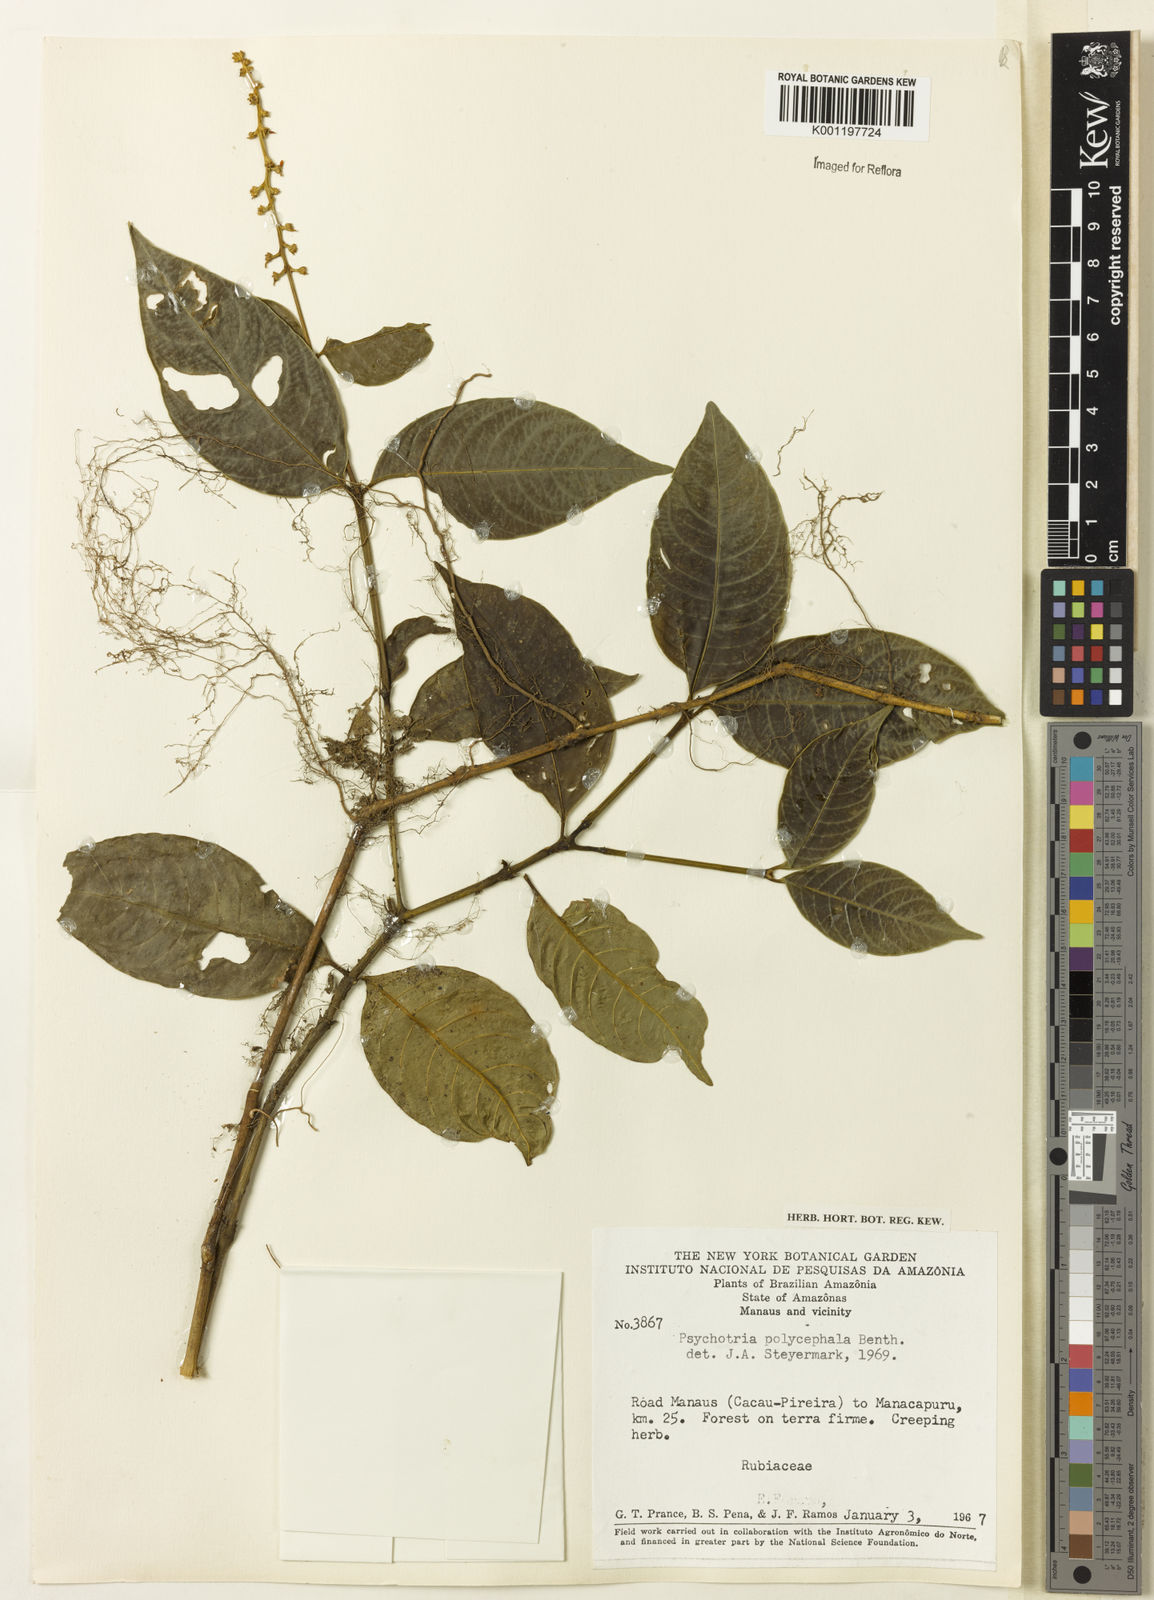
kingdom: Plantae
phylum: Tracheophyta
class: Magnoliopsida
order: Gentianales
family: Rubiaceae
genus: Palicourea
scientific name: Palicourea polycephala
